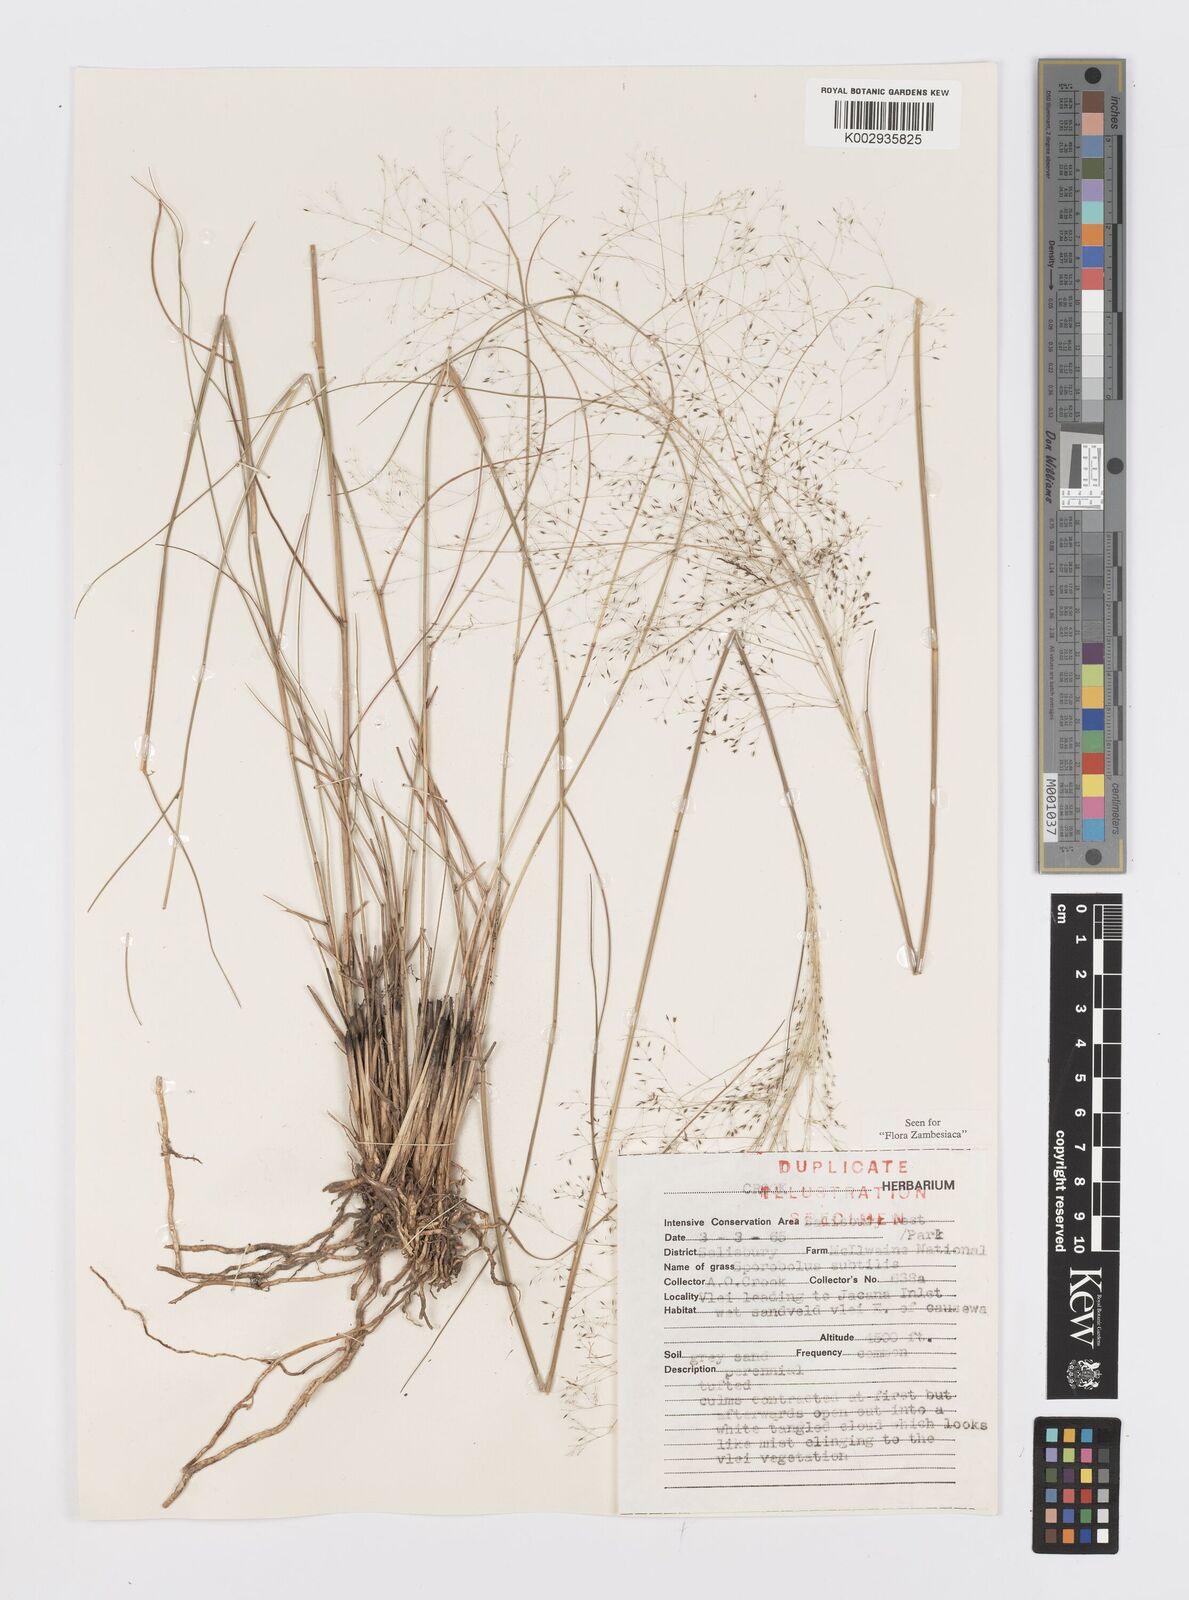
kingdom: Plantae
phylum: Tracheophyta
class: Liliopsida
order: Poales
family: Poaceae
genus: Sporobolus
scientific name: Sporobolus subtilis
